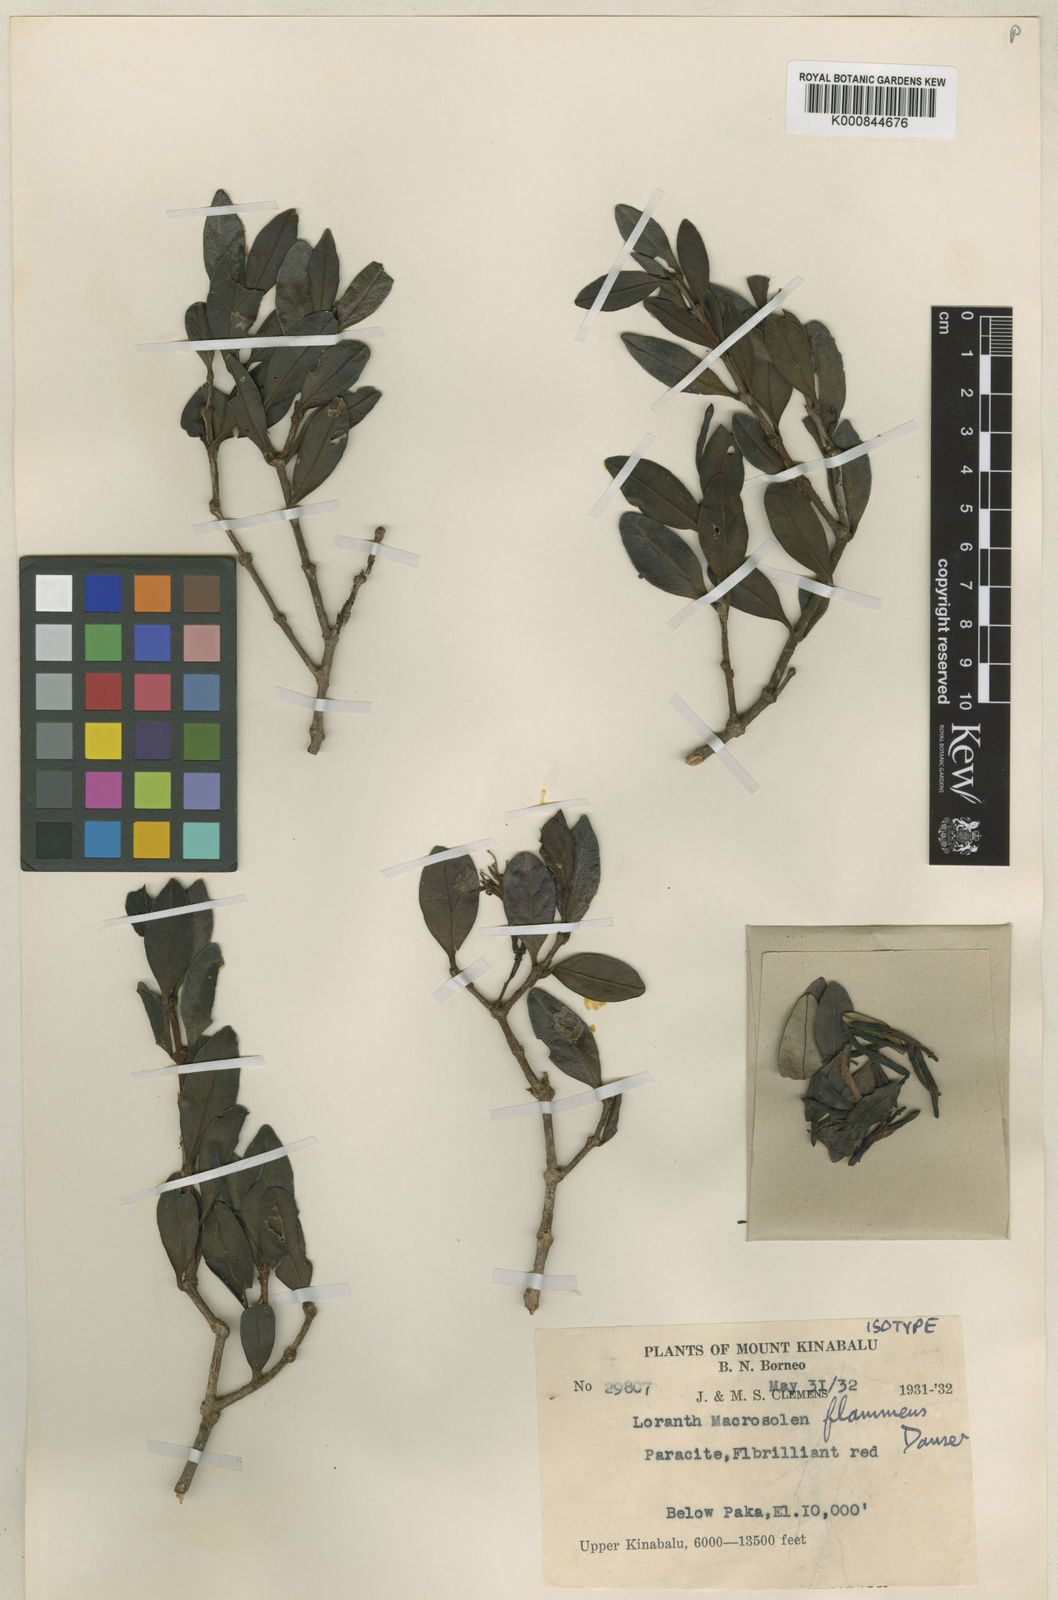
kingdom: Plantae
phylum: Tracheophyta
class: Magnoliopsida
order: Santalales
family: Loranthaceae
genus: Macrosolen
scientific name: Macrosolen flammeus
